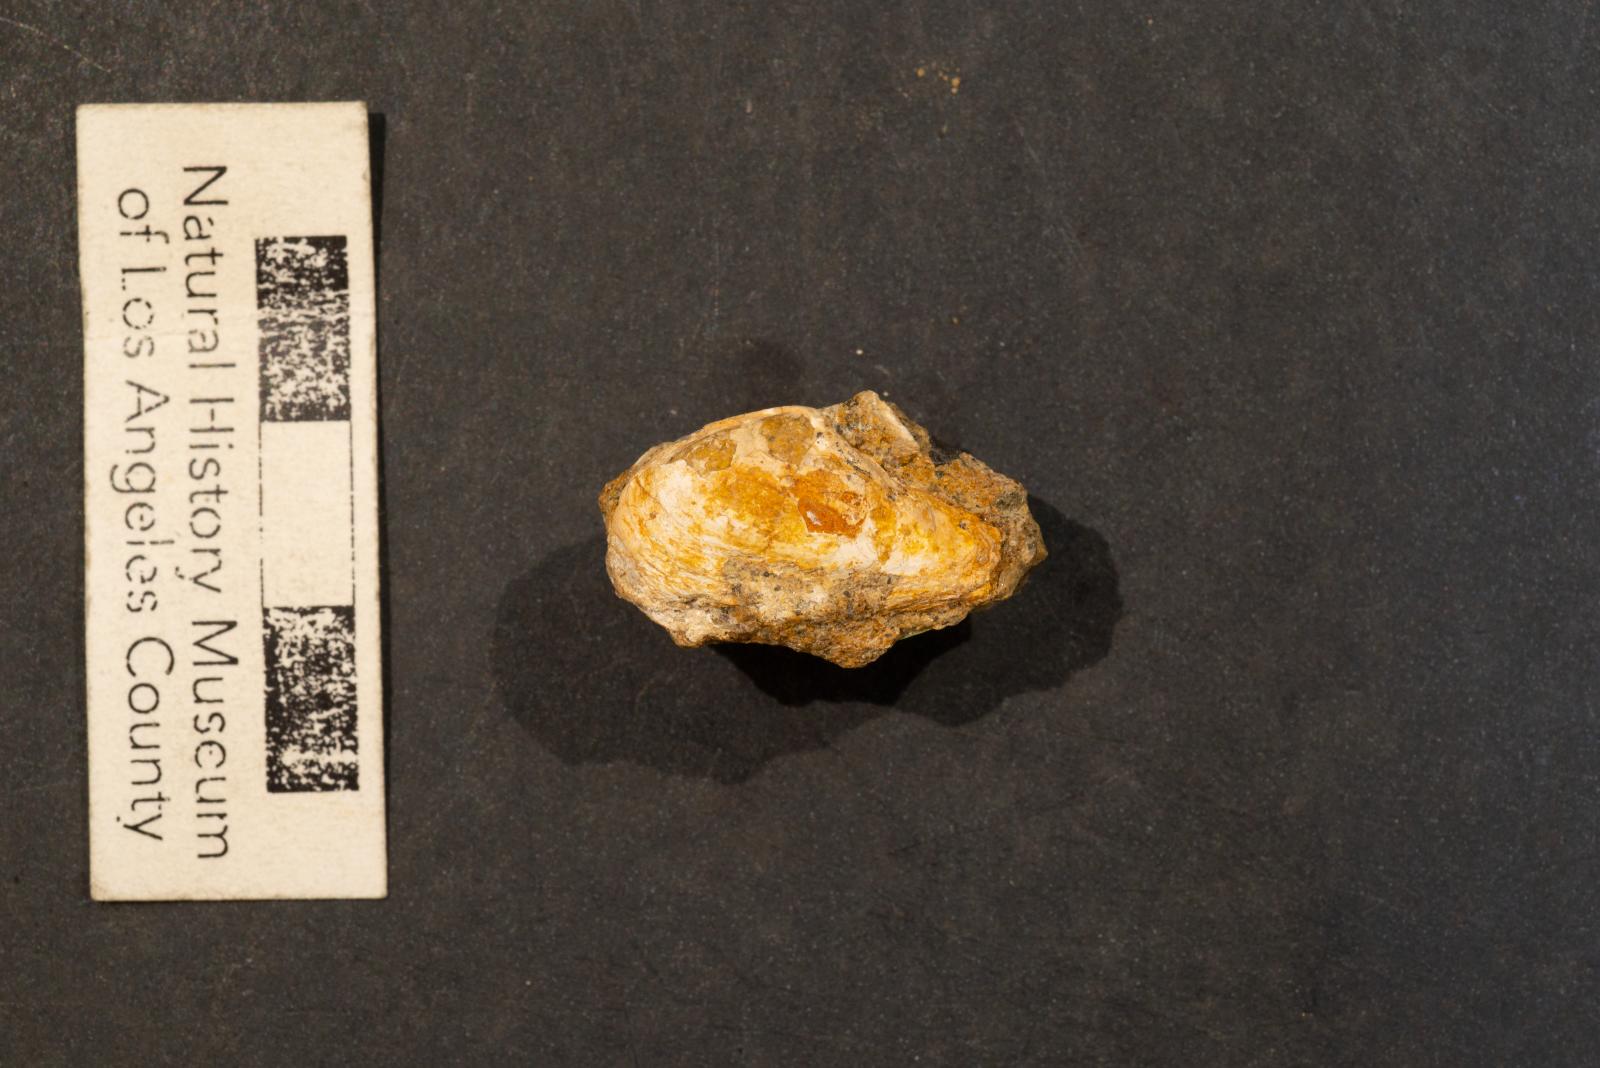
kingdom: Animalia
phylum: Mollusca
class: Bivalvia
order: Myida
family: Corbulidae
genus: Eoursivivas
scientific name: Eoursivivas Corbula cultriformis
